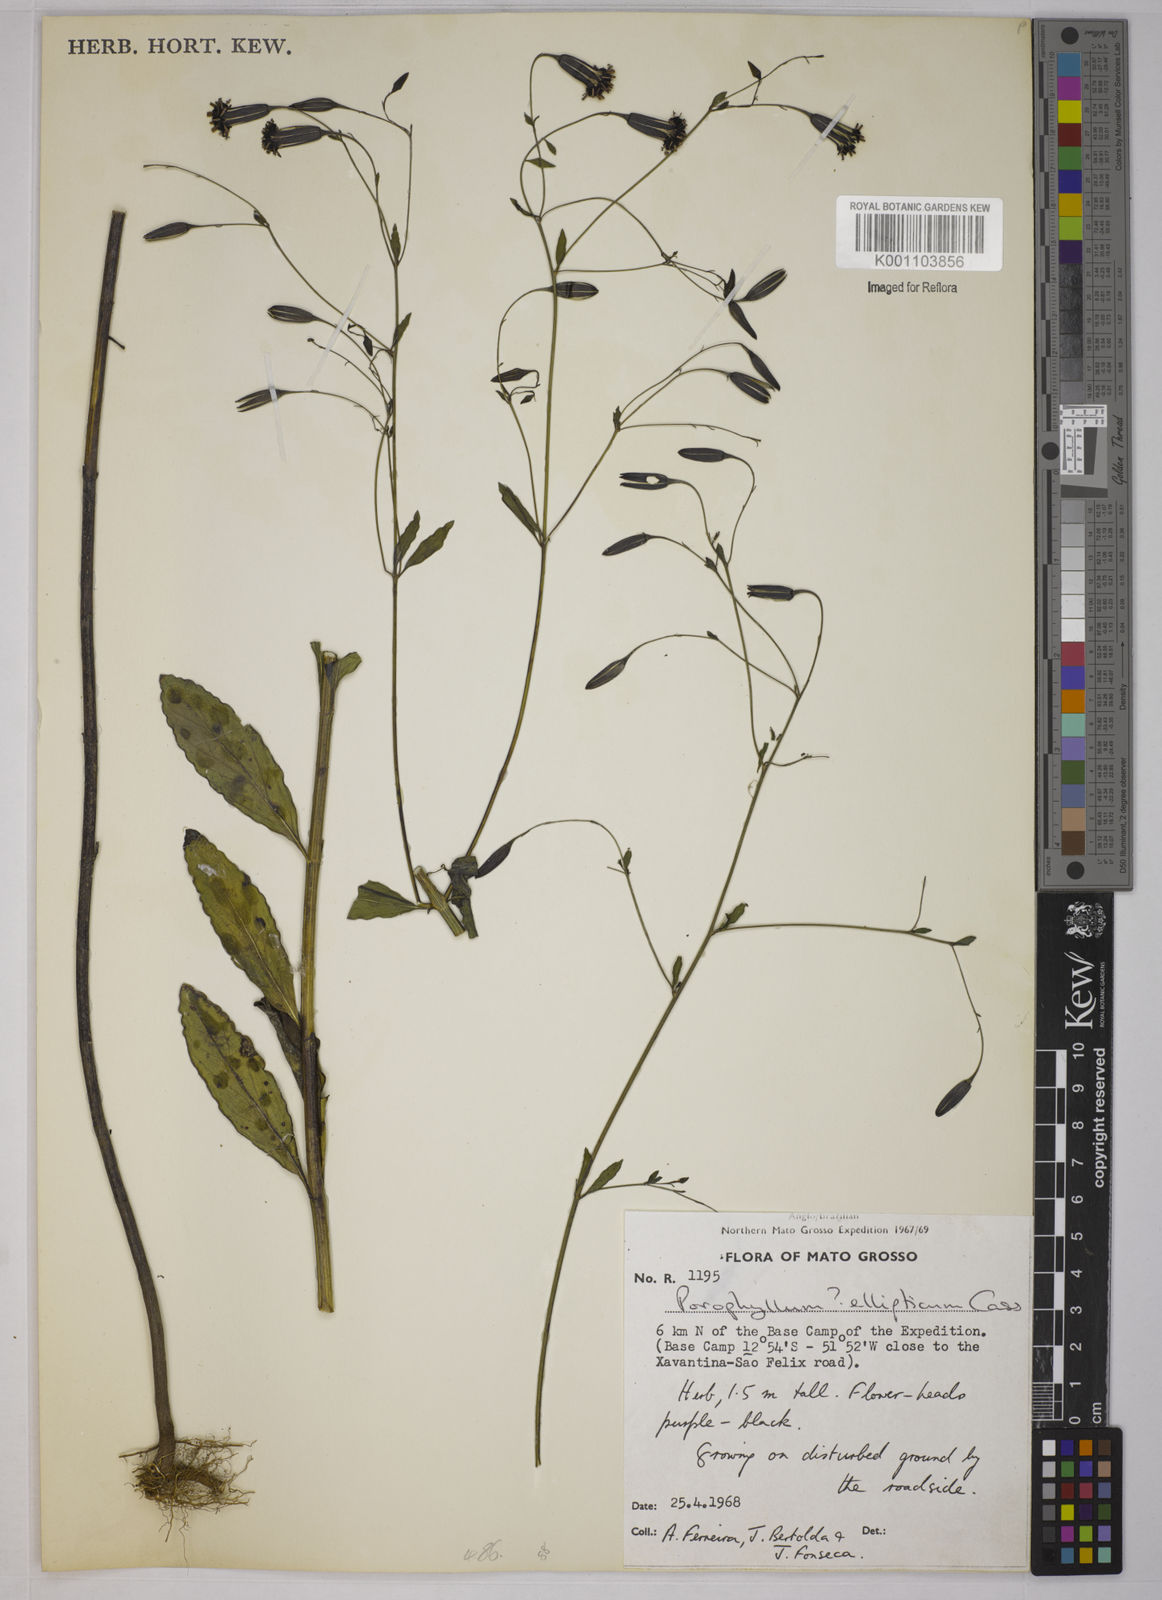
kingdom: Plantae
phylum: Tracheophyta
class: Magnoliopsida
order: Asterales
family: Asteraceae
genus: Porophyllum
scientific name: Porophyllum ruderale
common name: Yerba porosa
